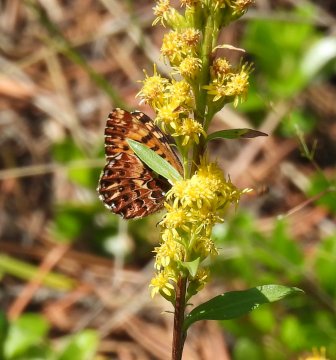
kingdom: Animalia
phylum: Arthropoda
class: Insecta
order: Lepidoptera
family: Nymphalidae
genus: Boloria
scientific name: Boloria chariclea
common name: Arctic Fritillary
